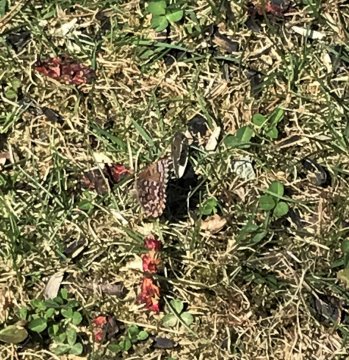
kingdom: Animalia
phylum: Arthropoda
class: Insecta
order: Lepidoptera
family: Lycaenidae
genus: Incisalia
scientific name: Incisalia niphon
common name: Eastern Pine Elfin
